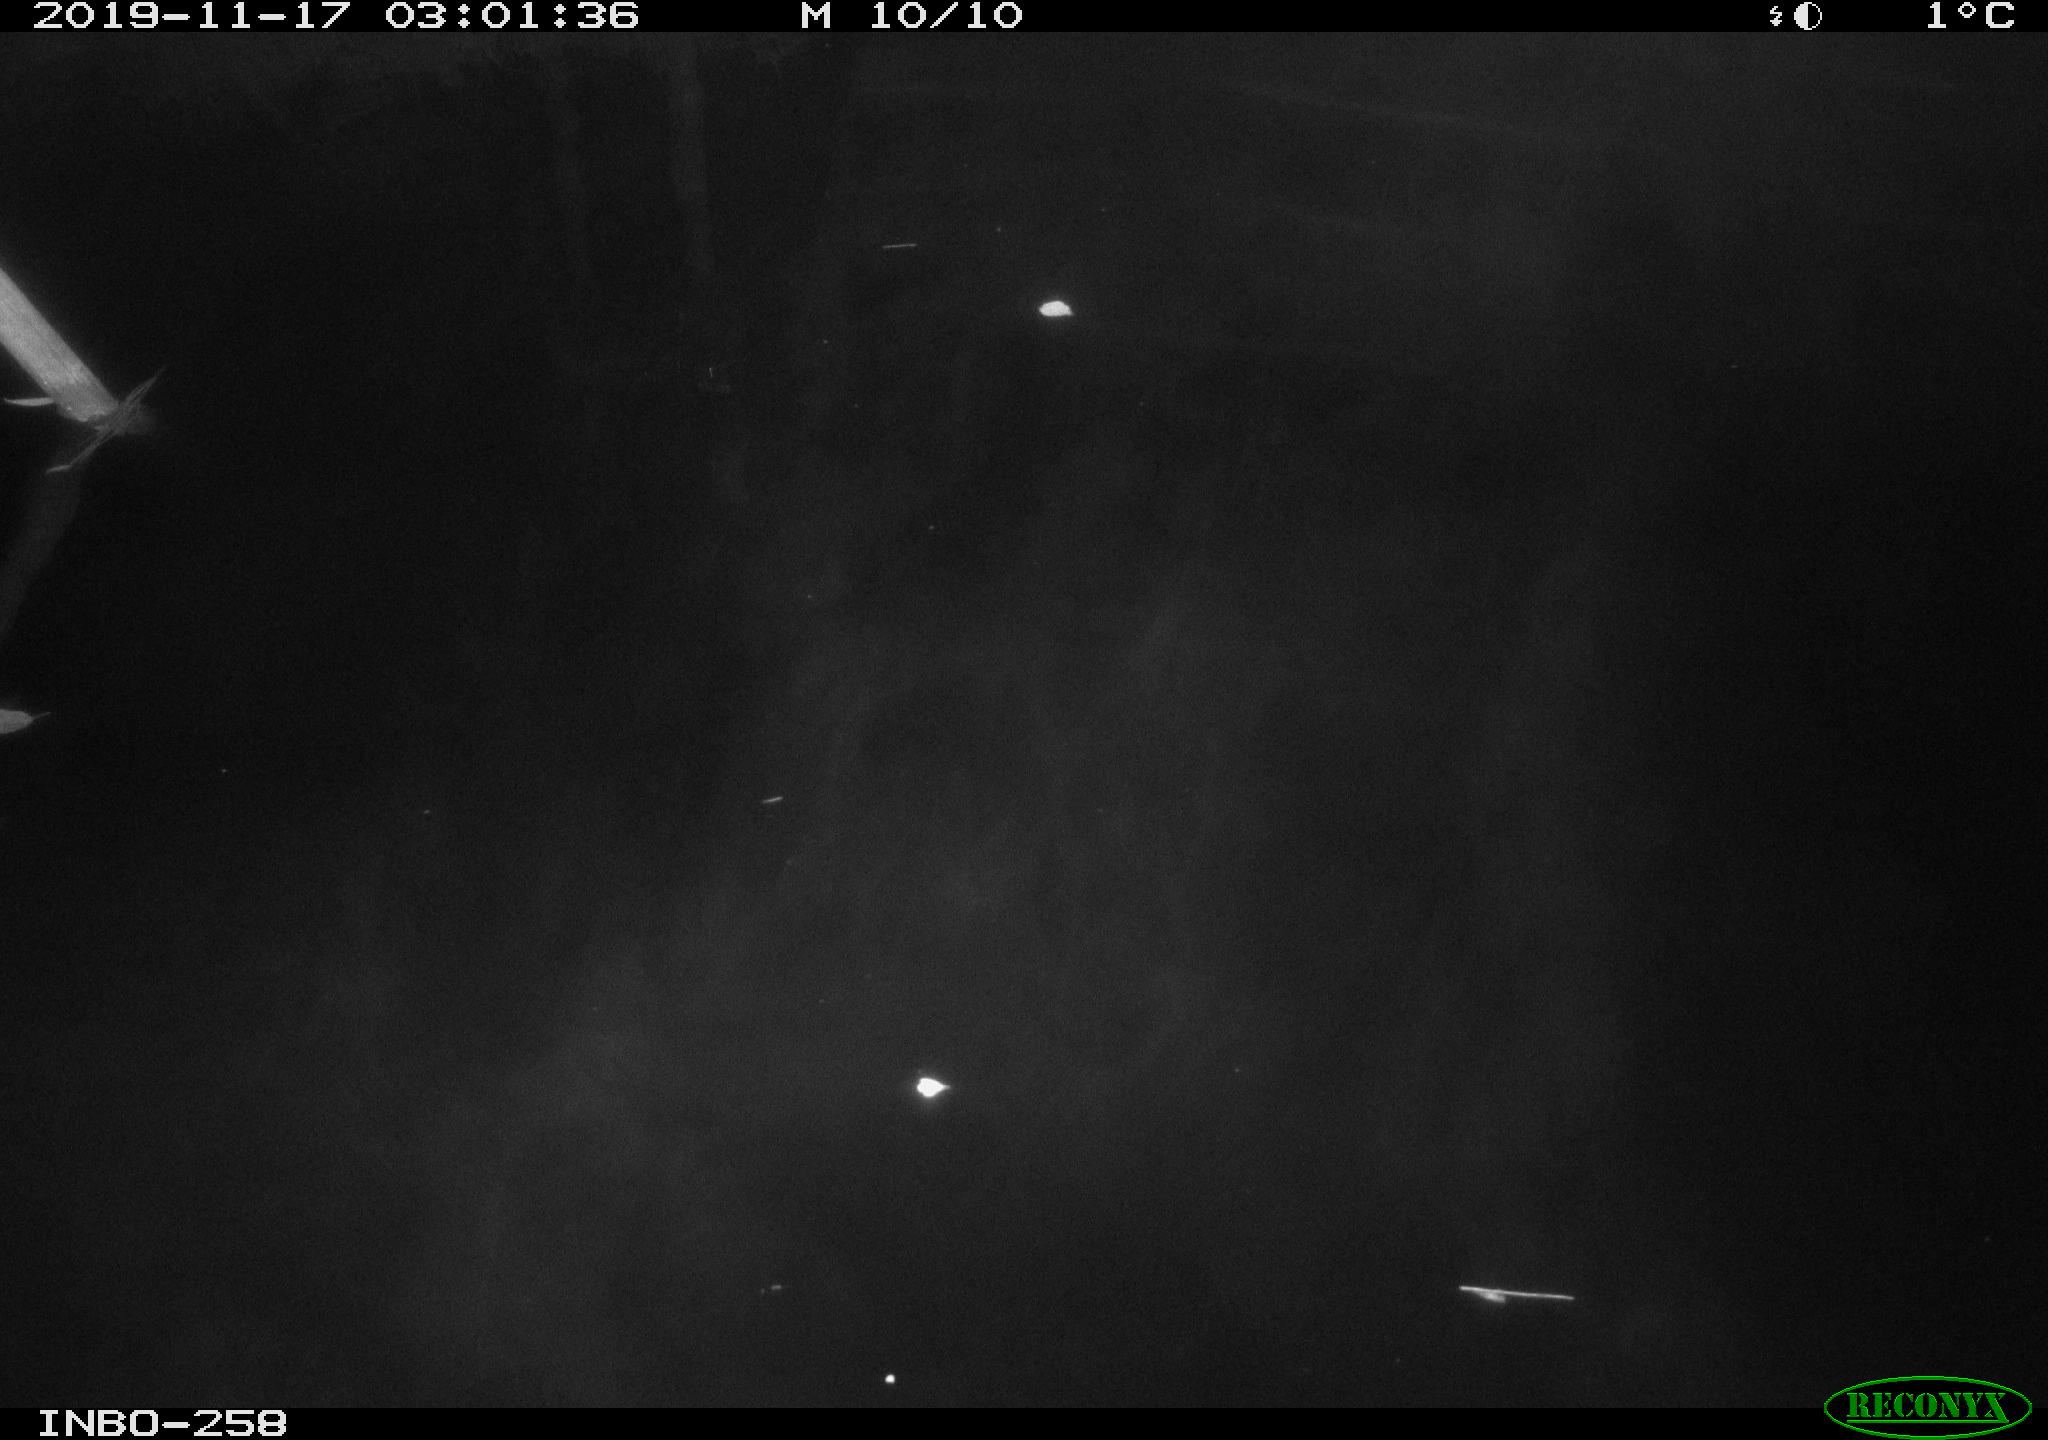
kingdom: Animalia
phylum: Chordata
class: Aves
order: Anseriformes
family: Anatidae
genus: Anas
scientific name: Anas platyrhynchos
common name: Mallard
